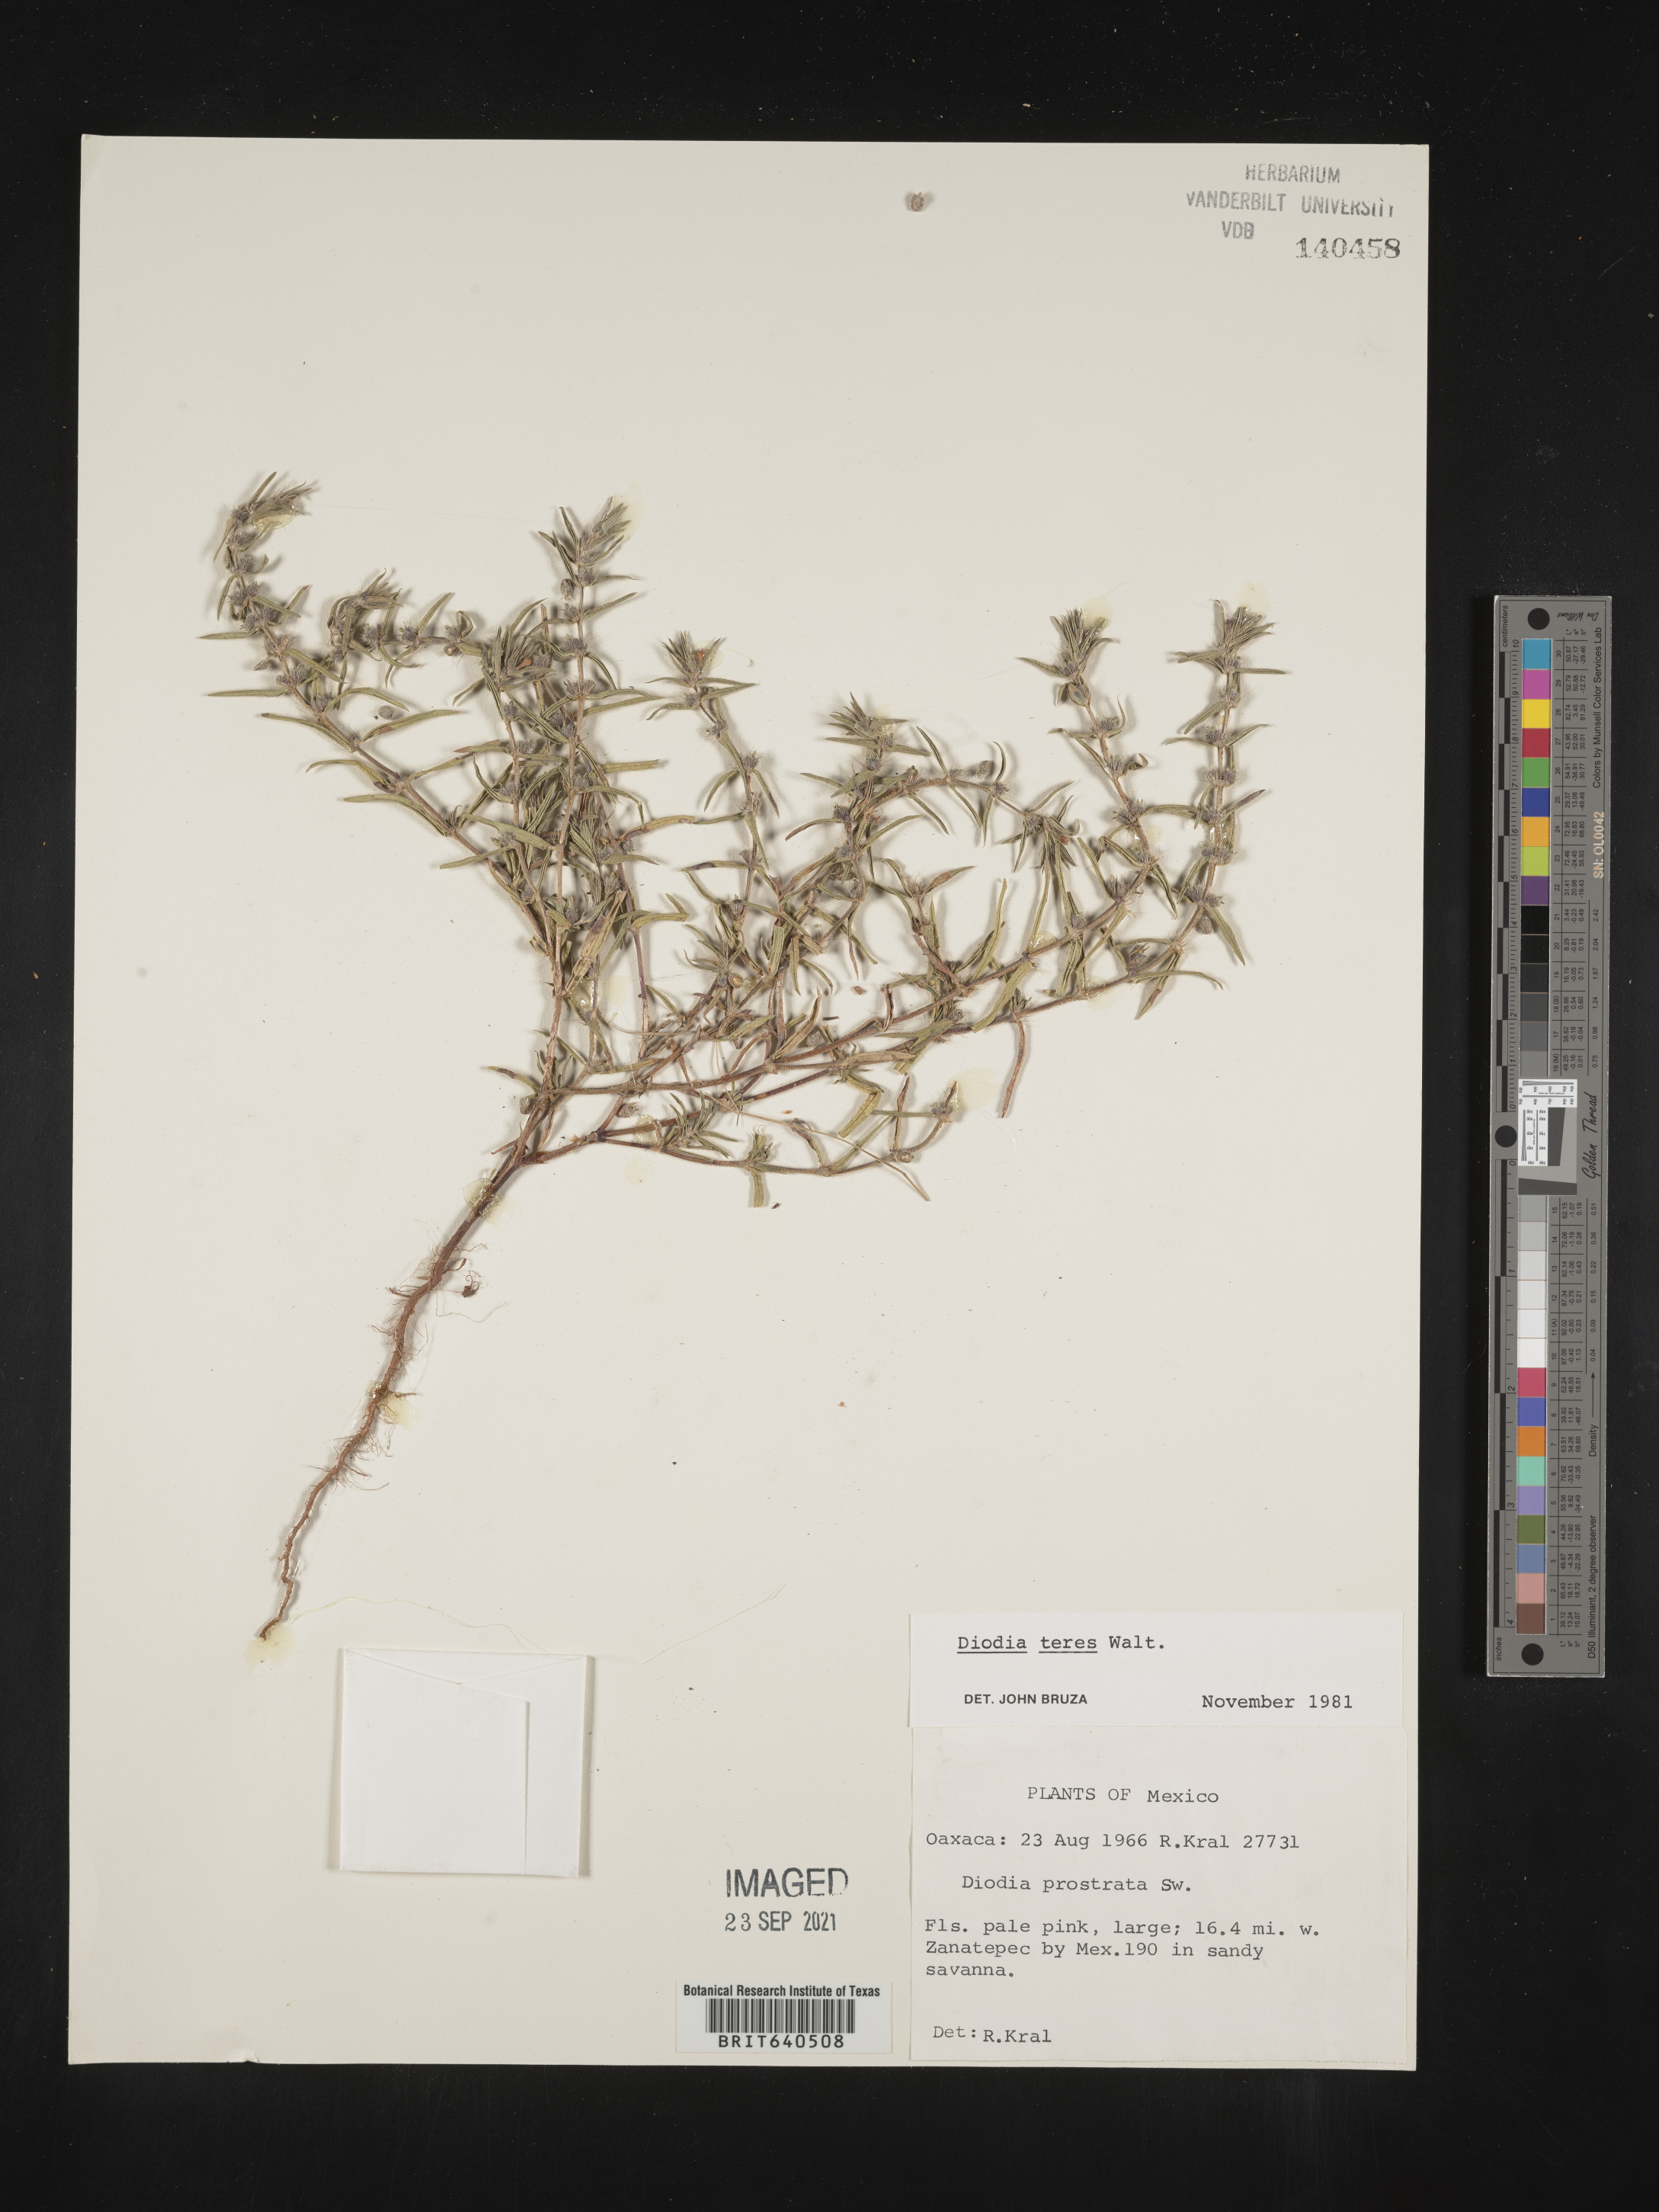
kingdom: Plantae
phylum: Tracheophyta
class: Magnoliopsida
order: Gentianales
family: Rubiaceae
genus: Diodia
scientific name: Diodia
